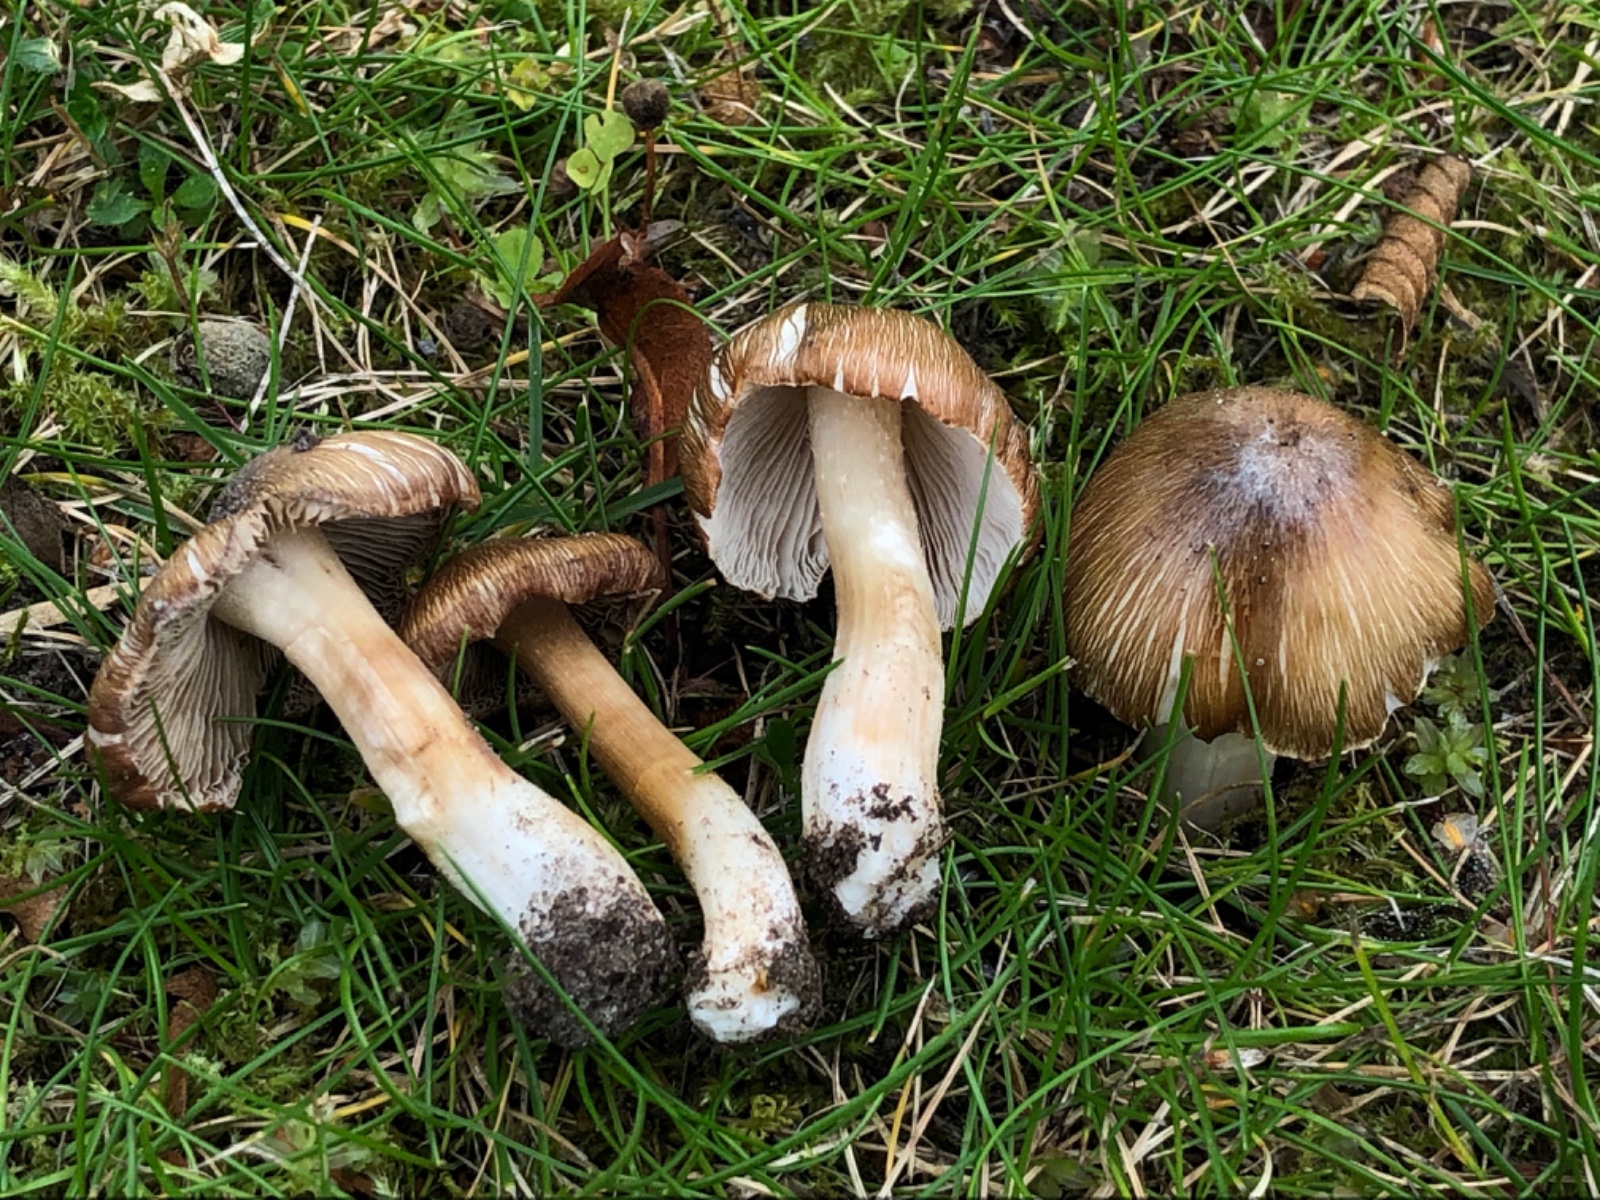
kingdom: Fungi
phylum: Basidiomycota
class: Agaricomycetes
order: Agaricales
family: Inocybaceae
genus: Inosperma
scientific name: Inosperma
